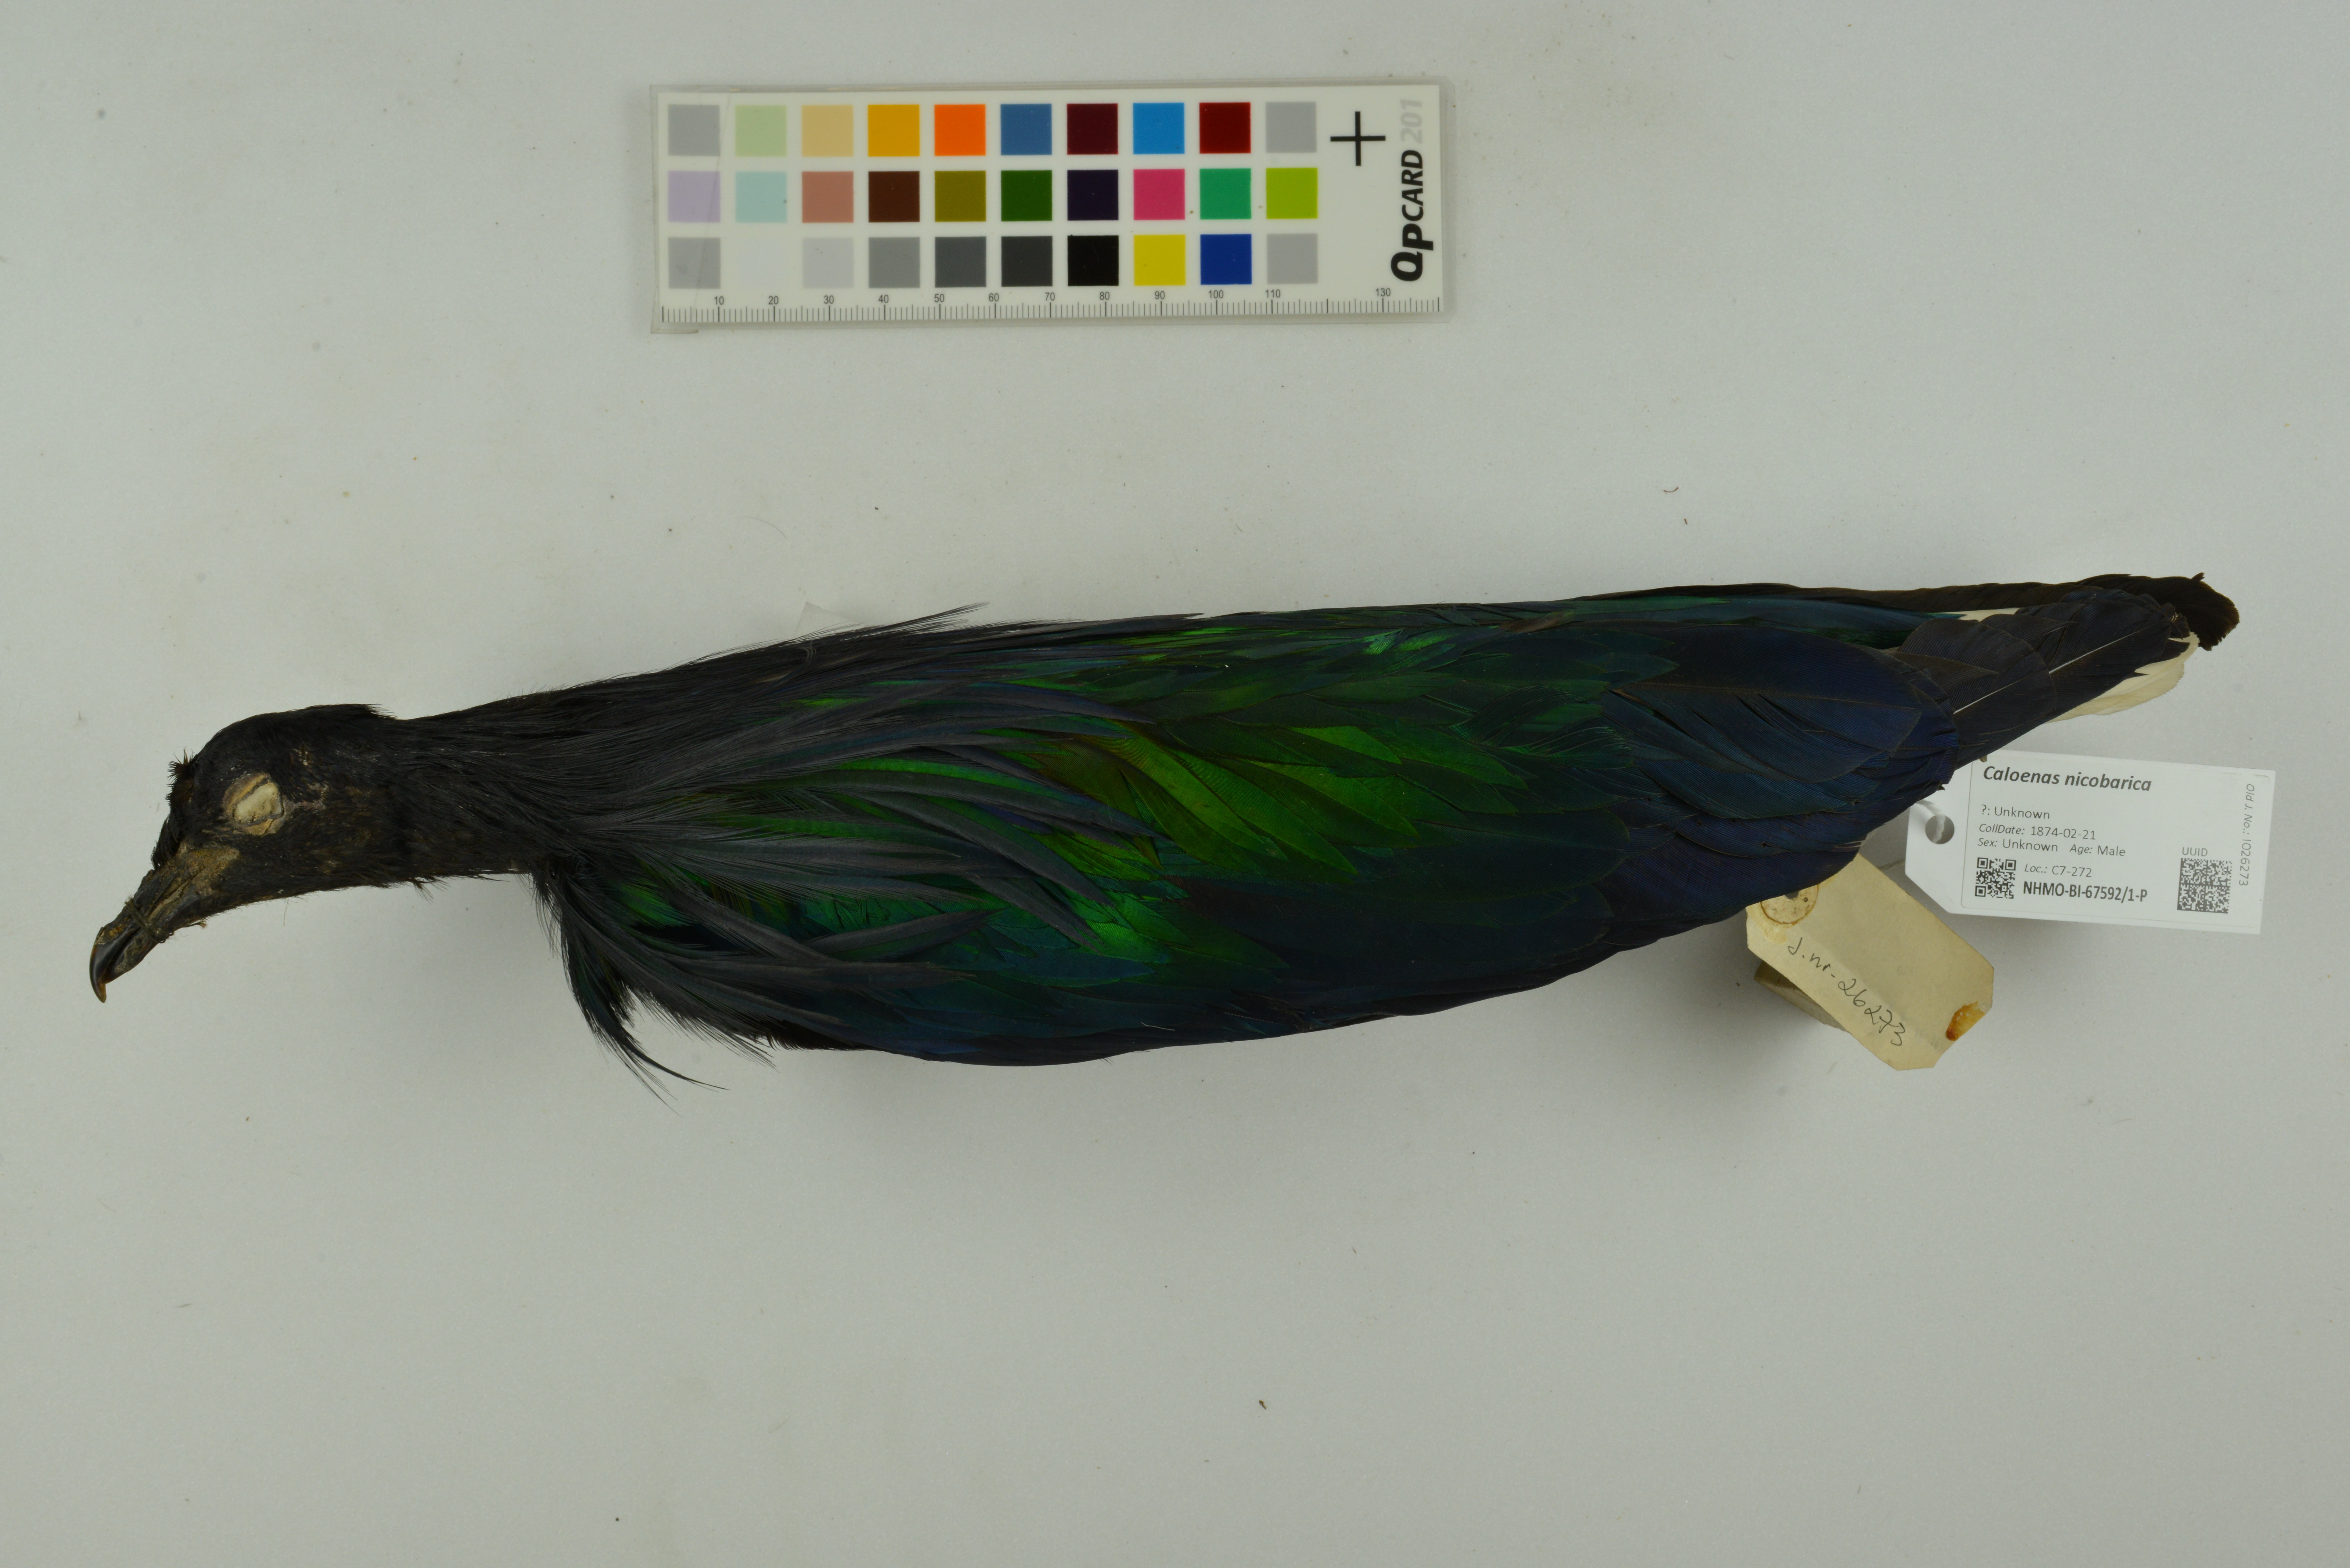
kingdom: Animalia
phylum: Chordata
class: Aves
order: Columbiformes
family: Columbidae
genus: Caloenas
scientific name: Caloenas nicobarica
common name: Nicobar pigeon
